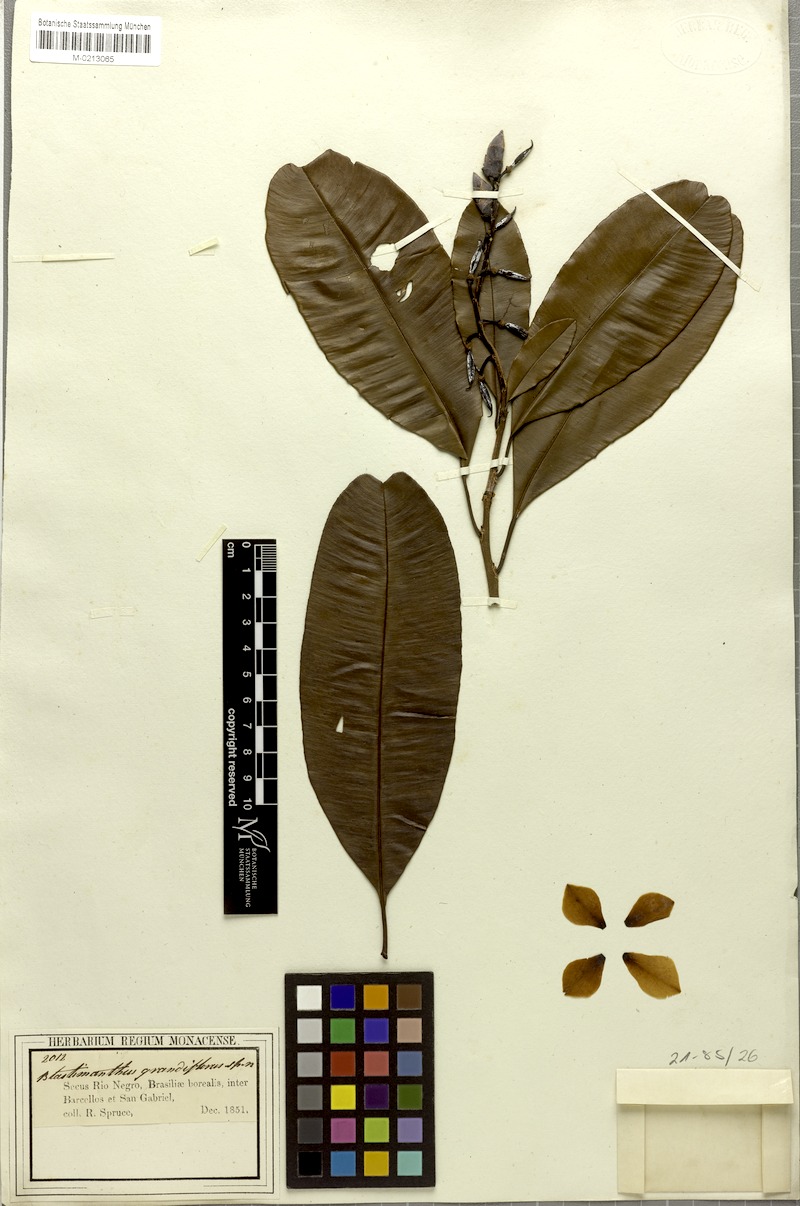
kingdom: Plantae
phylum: Tracheophyta
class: Magnoliopsida
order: Malpighiales
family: Ochnaceae
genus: Blastemanthus
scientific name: Blastemanthus grandiflorus
